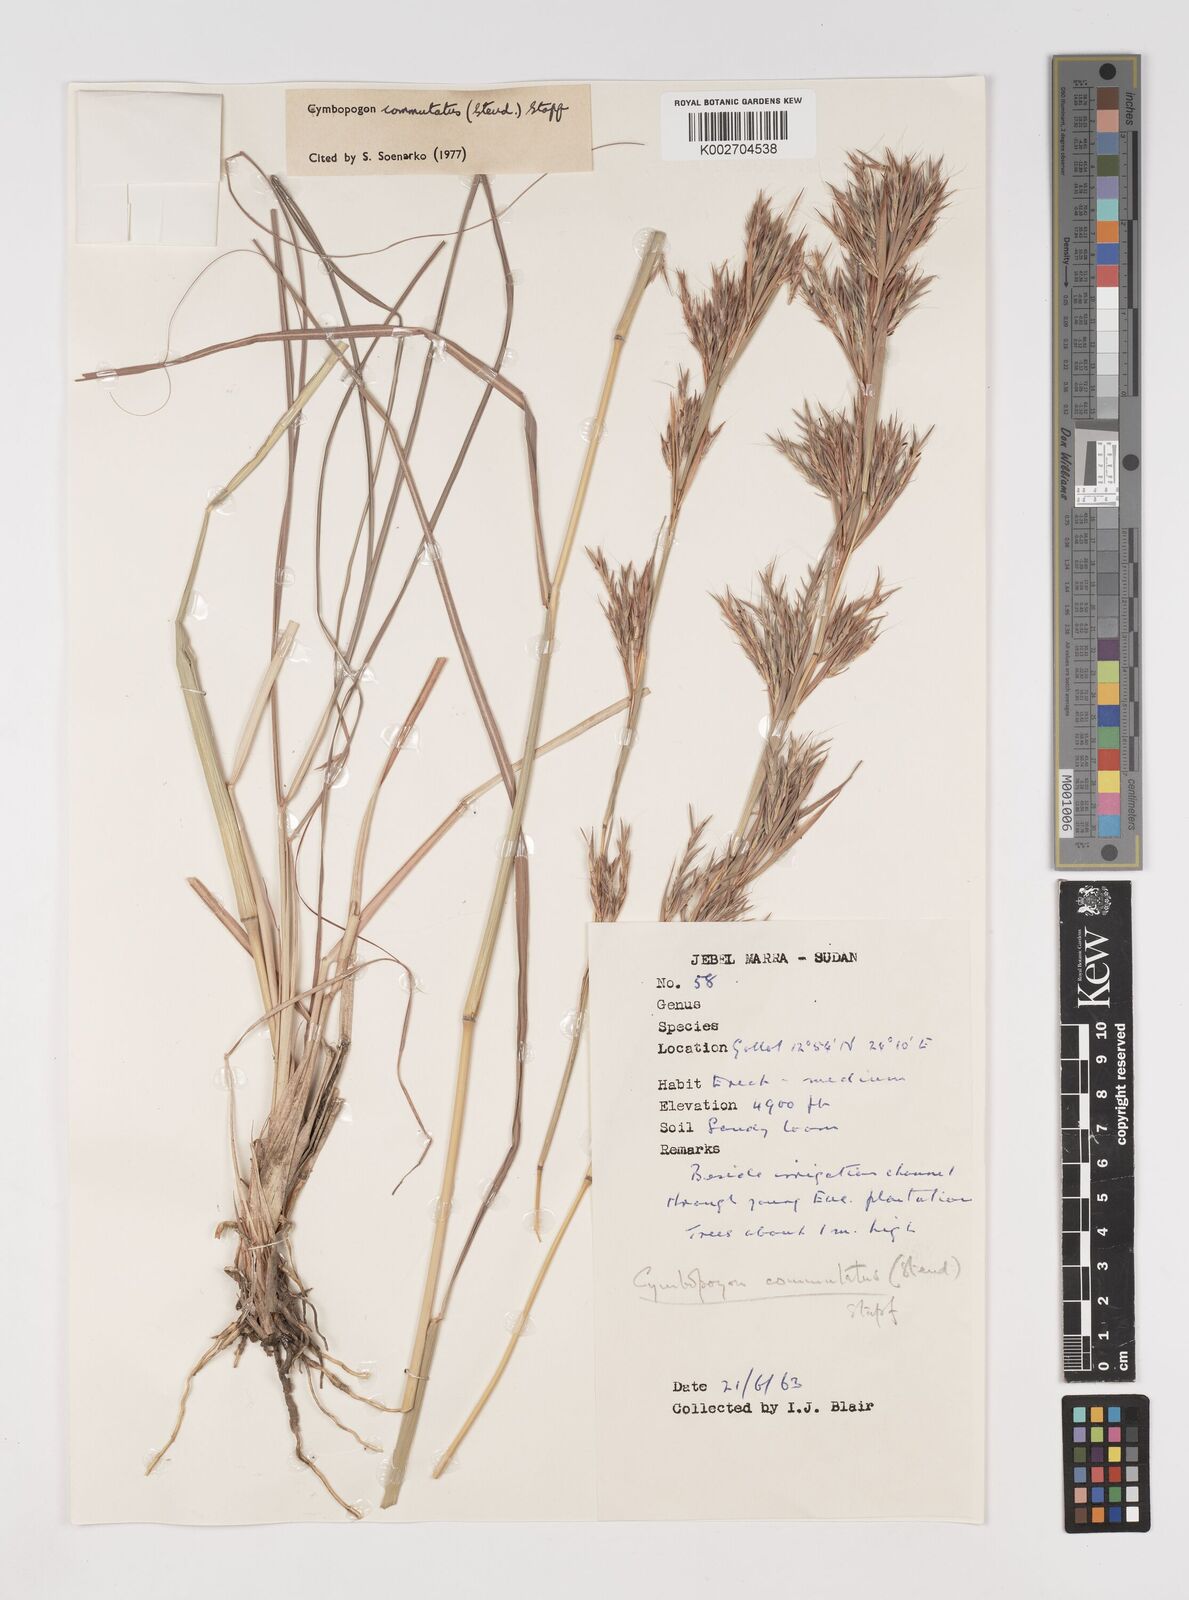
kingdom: Plantae
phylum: Tracheophyta
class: Liliopsida
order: Poales
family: Poaceae
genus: Cymbopogon
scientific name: Cymbopogon commutatus
